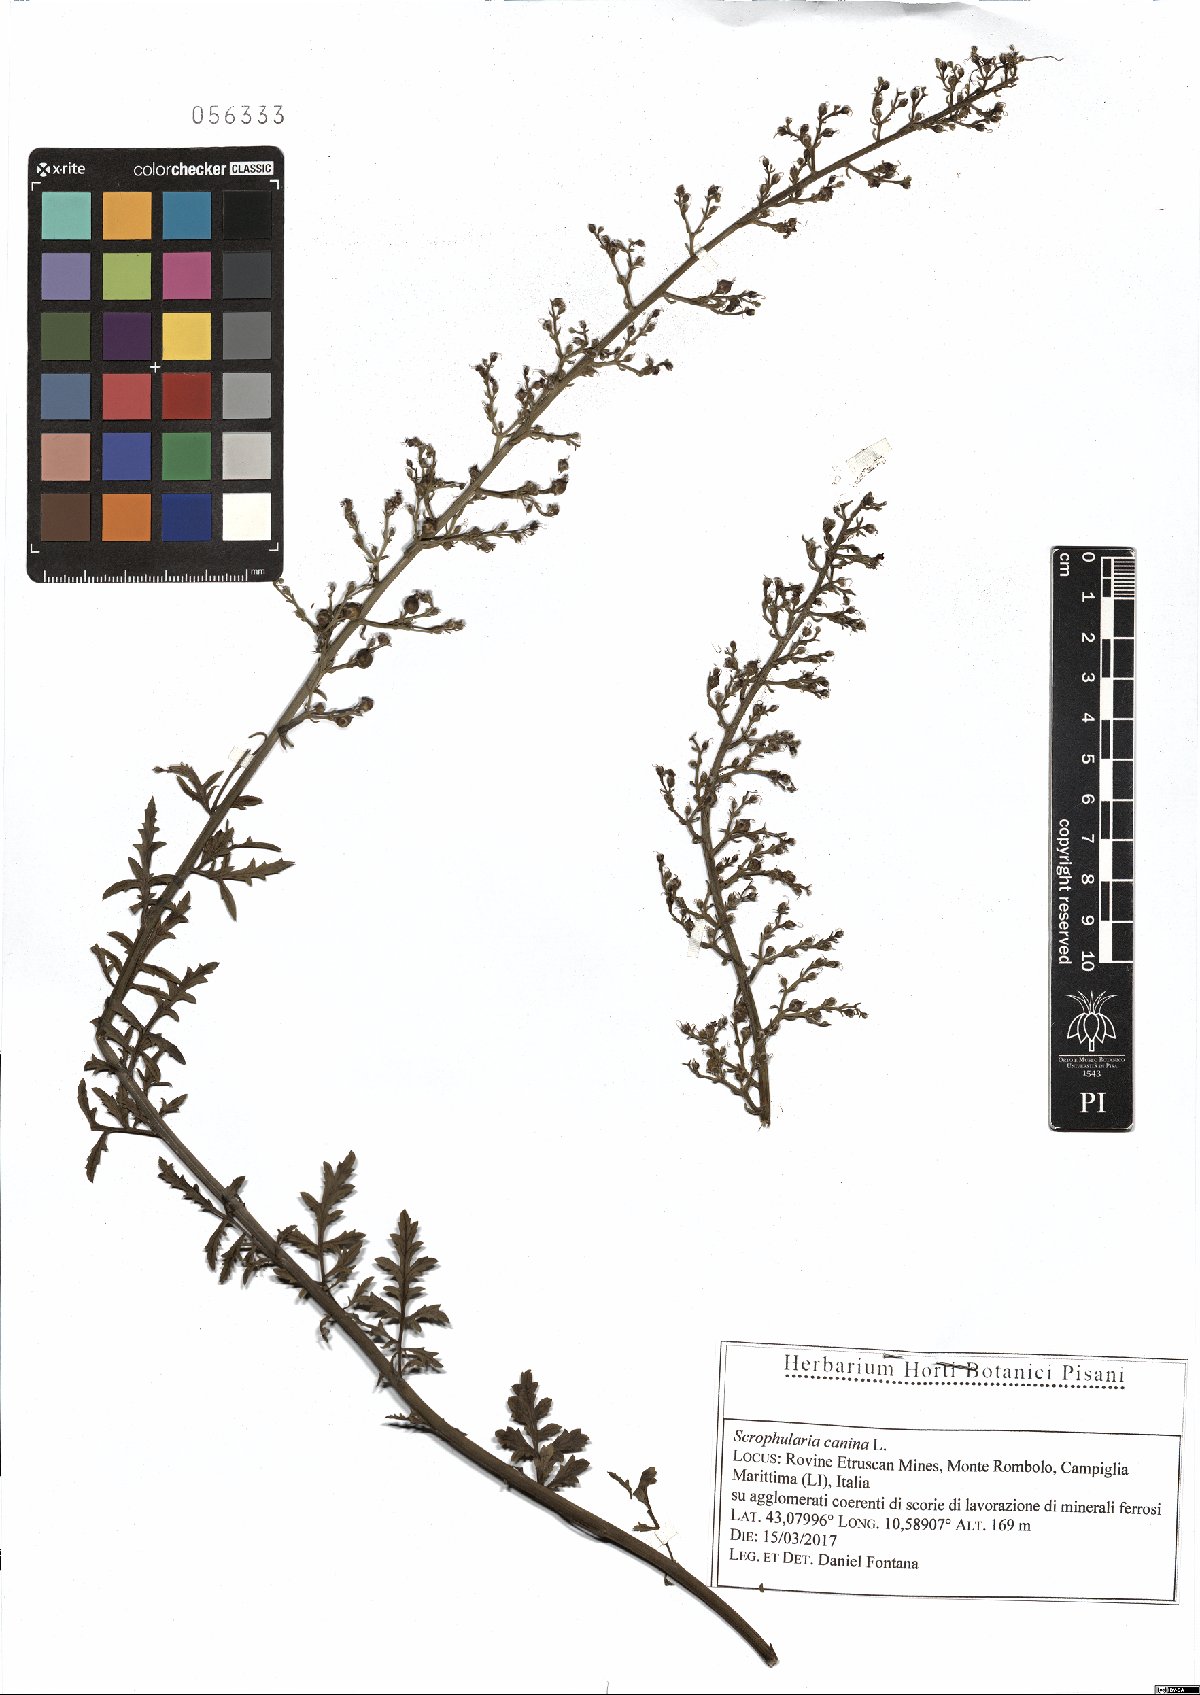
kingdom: Plantae
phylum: Tracheophyta
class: Magnoliopsida
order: Lamiales
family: Scrophulariaceae
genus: Scrophularia
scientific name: Scrophularia canina
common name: French figwort
